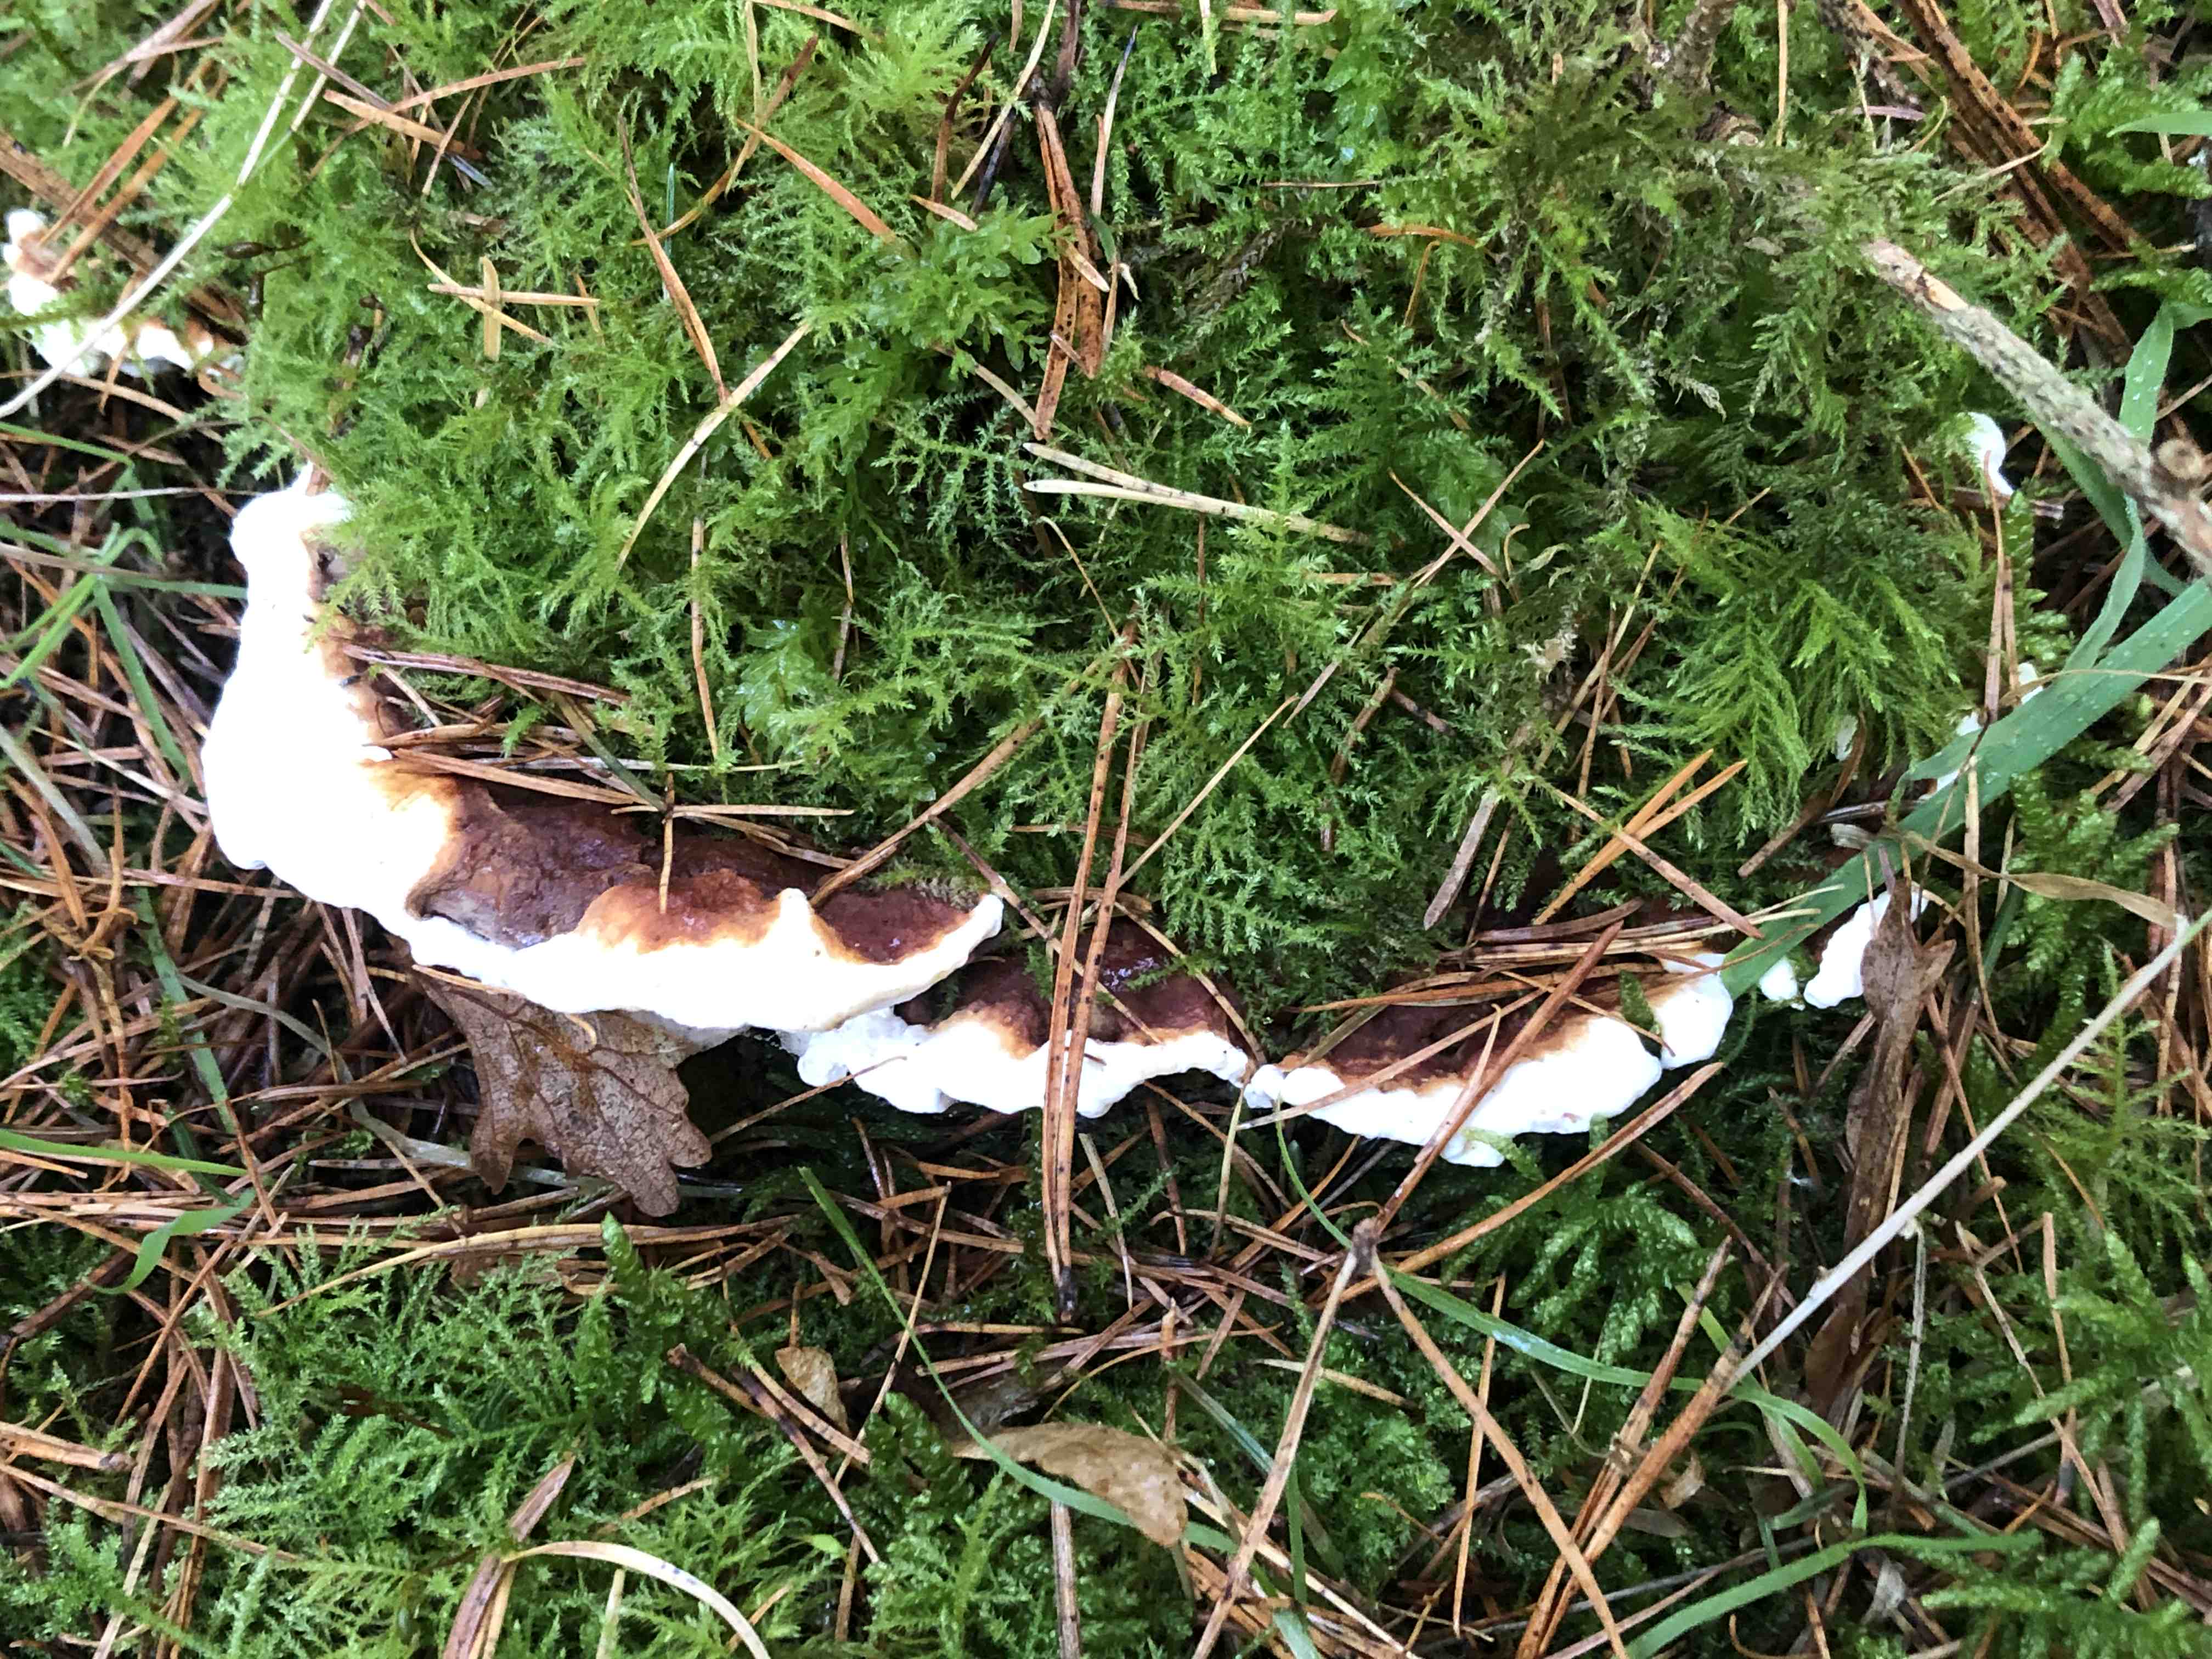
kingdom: Fungi
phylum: Basidiomycota
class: Agaricomycetes
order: Russulales
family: Bondarzewiaceae
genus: Heterobasidion
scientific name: Heterobasidion annosum
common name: almindelig rodfordærver
